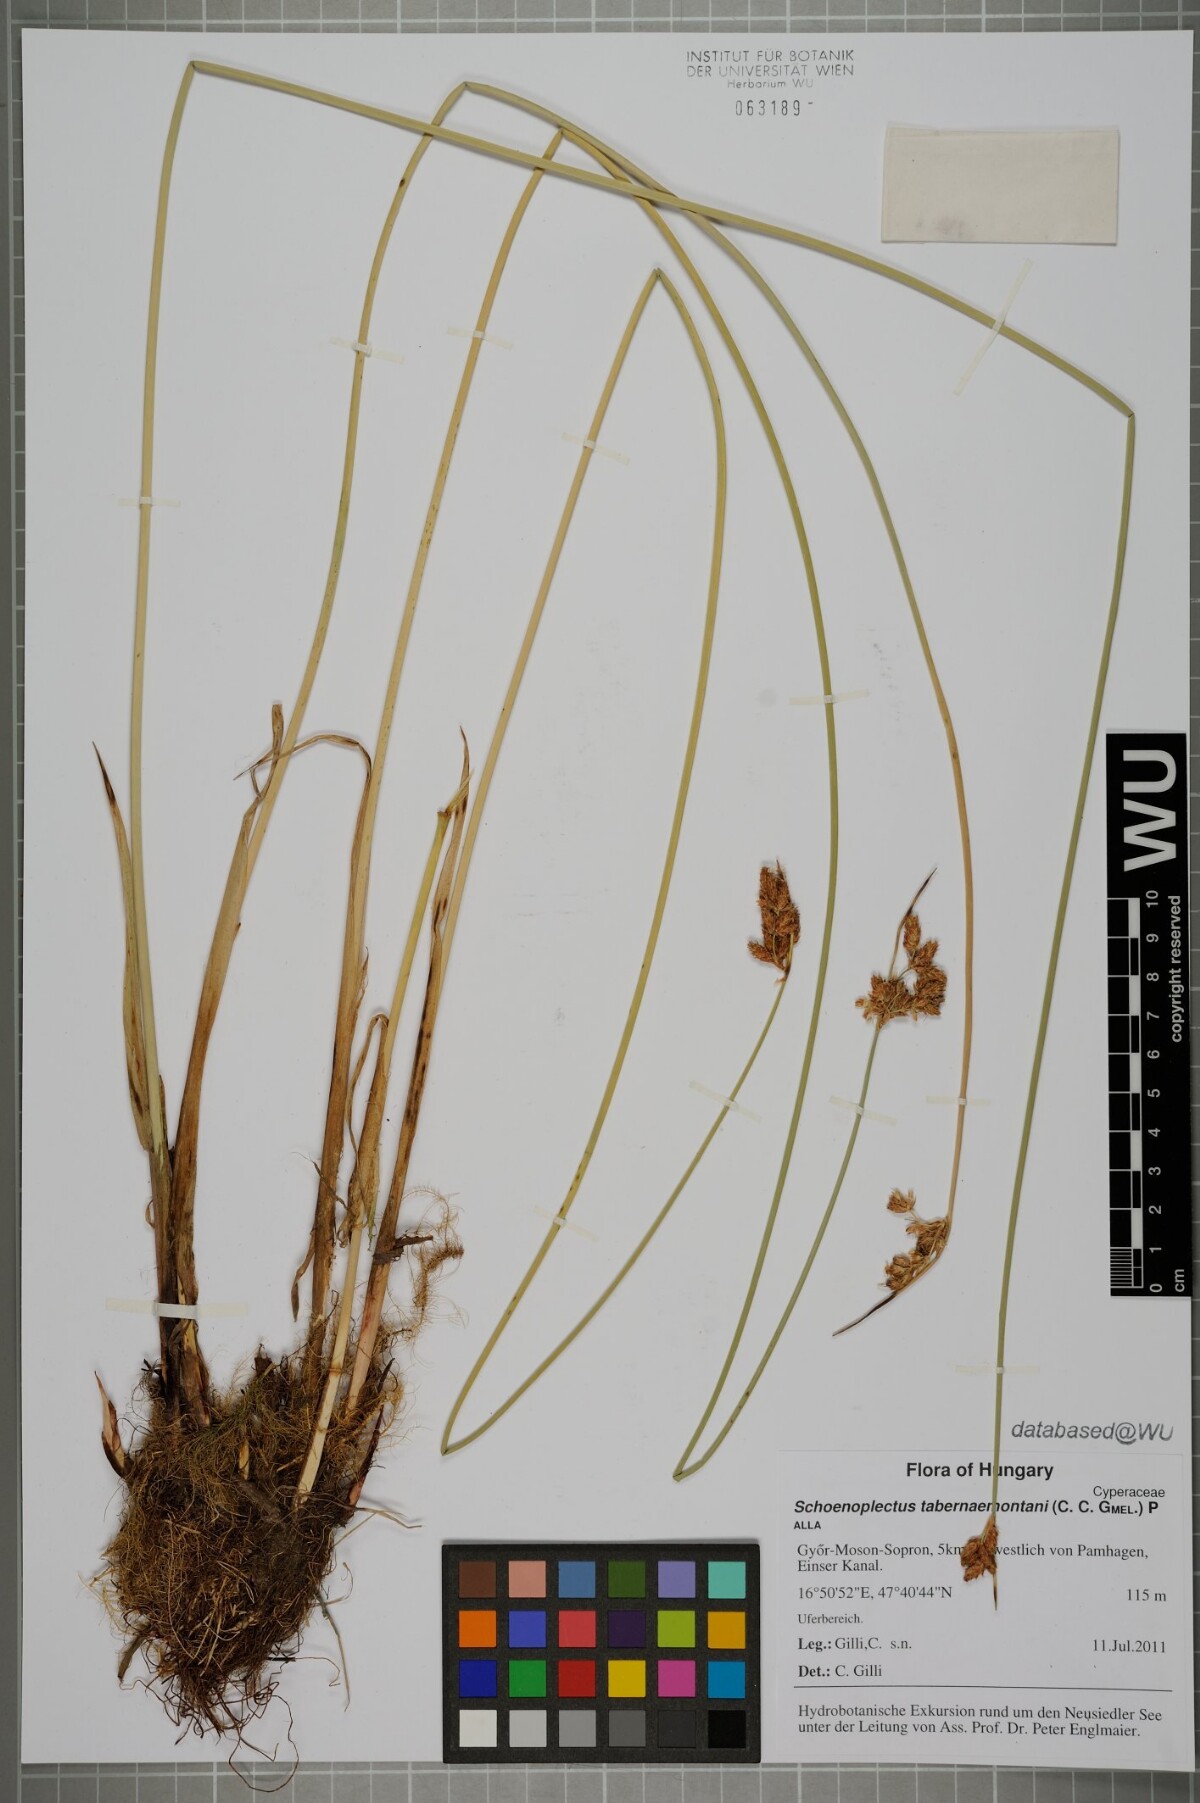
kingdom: Plantae
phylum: Tracheophyta
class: Liliopsida
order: Poales
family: Cyperaceae
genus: Schoenoplectus
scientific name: Schoenoplectus tabernaemontani
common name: Grey club-rush
